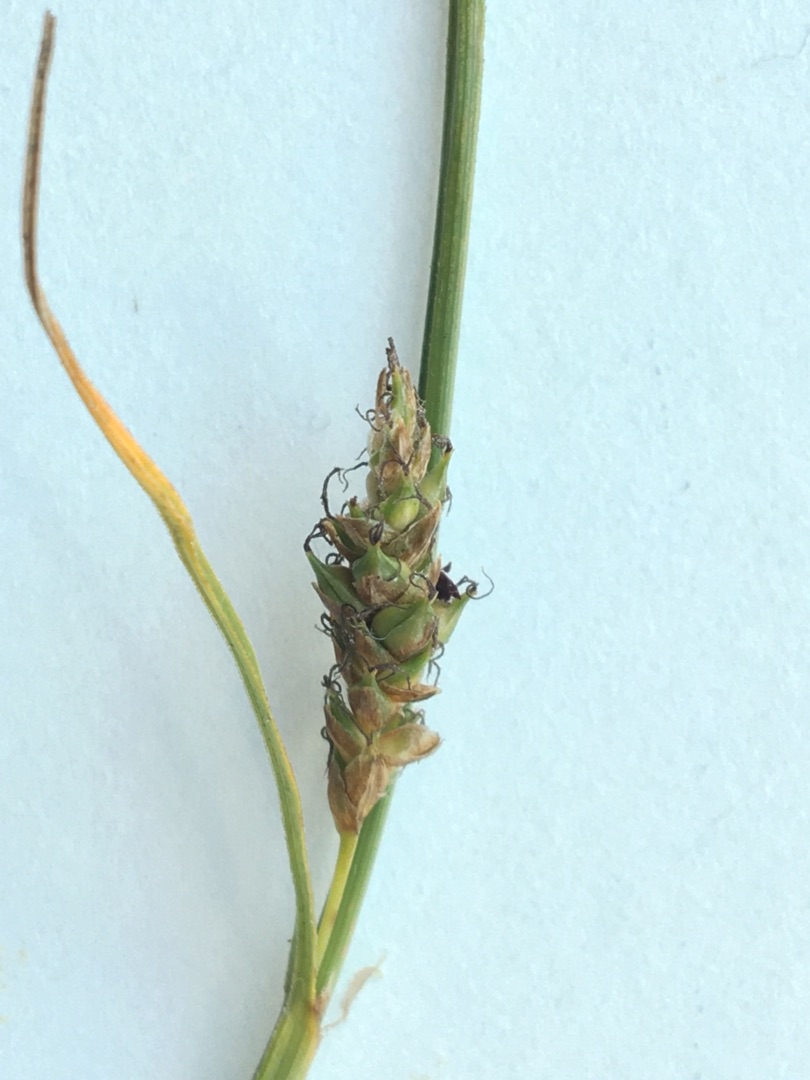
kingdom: Plantae
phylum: Tracheophyta
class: Liliopsida
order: Poales
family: Cyperaceae
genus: Carex
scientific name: Carex distans
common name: Fjernakset star
